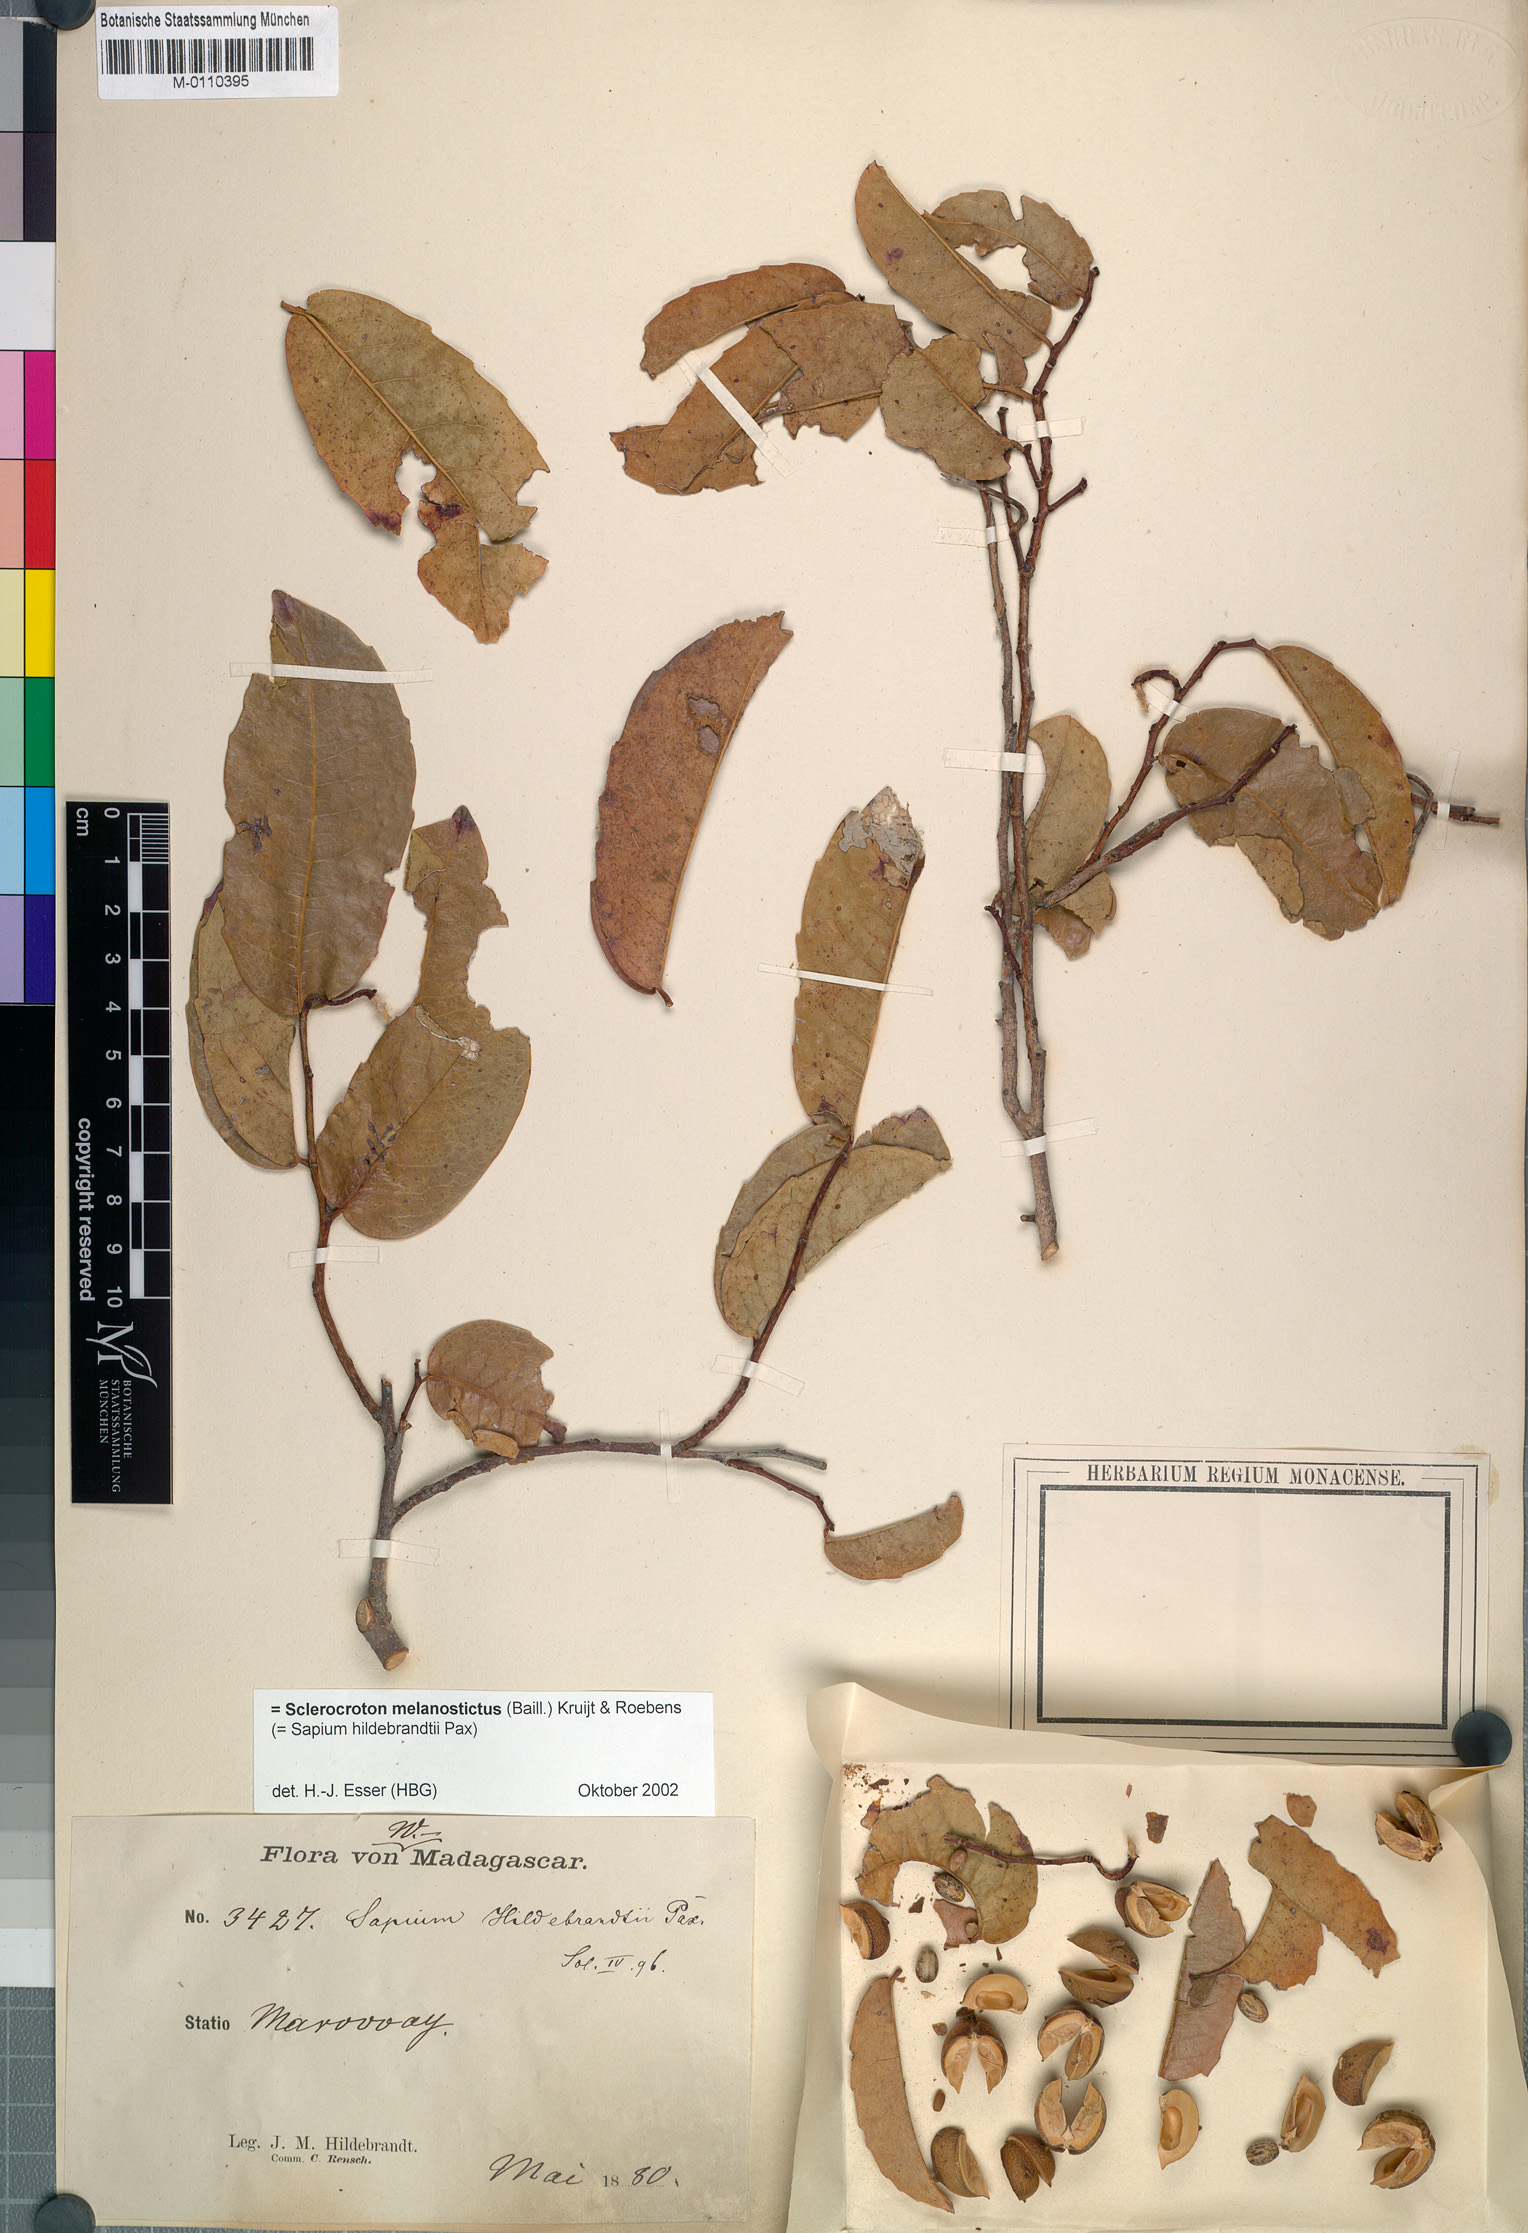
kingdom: Plantae
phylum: Tracheophyta
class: Magnoliopsida
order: Malpighiales
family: Euphorbiaceae
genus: Sclerocroton
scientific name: Sclerocroton melanostictus
